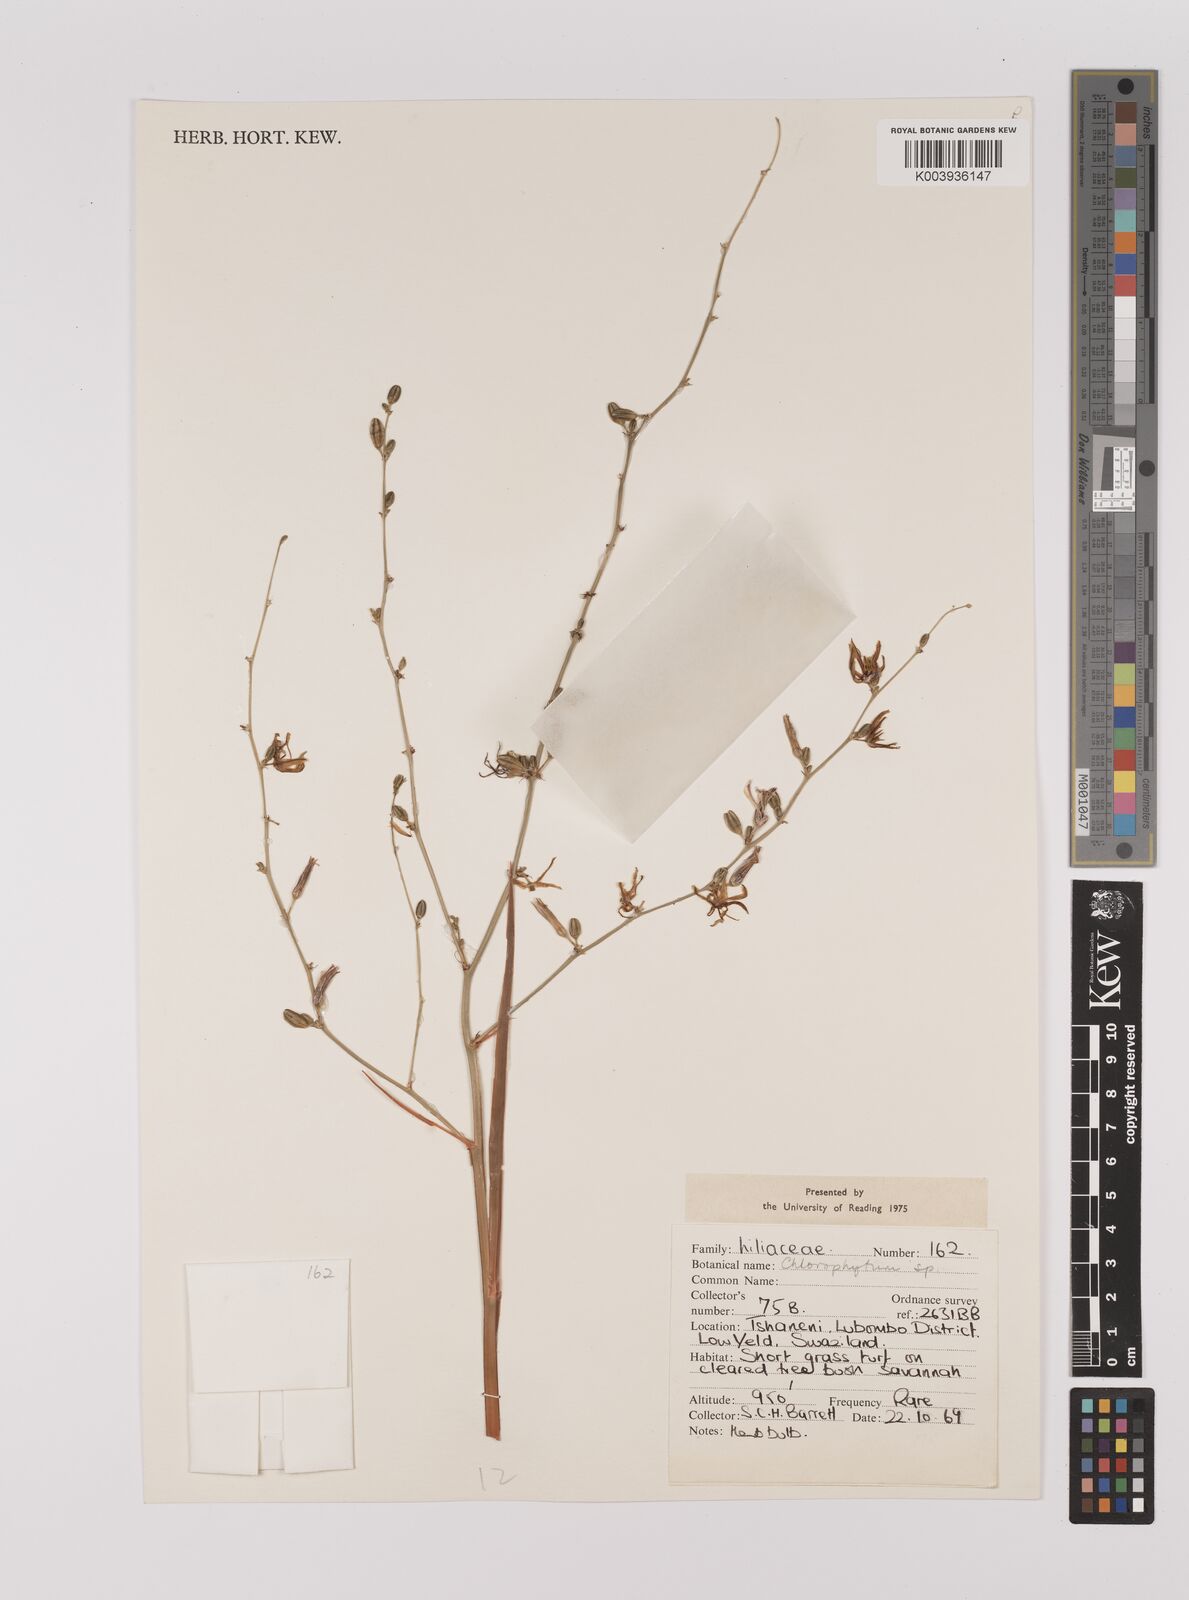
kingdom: Plantae
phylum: Tracheophyta
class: Liliopsida
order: Asparagales
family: Asparagaceae
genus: Chlorophytum
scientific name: Chlorophytum
